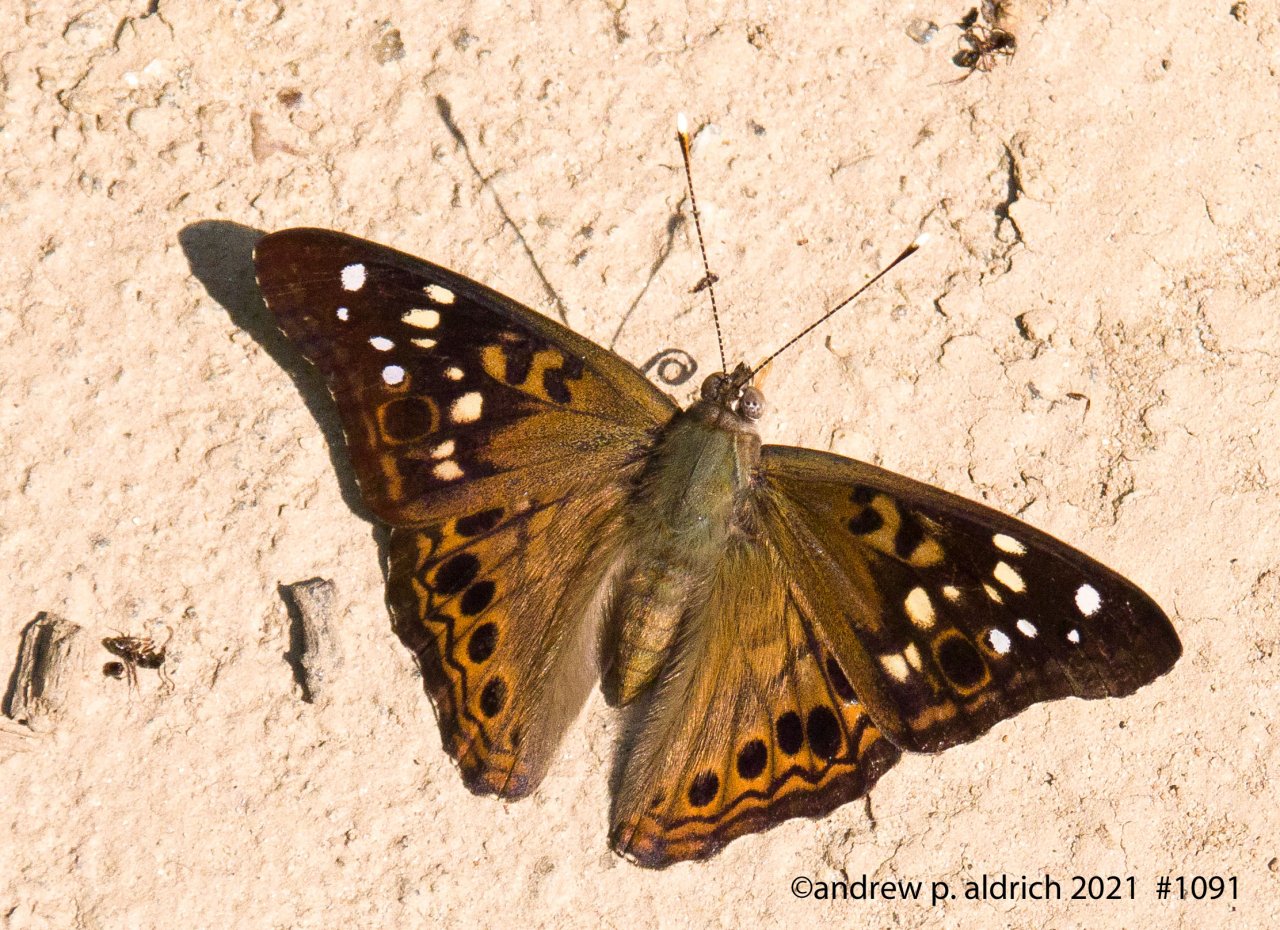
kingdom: Animalia
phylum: Arthropoda
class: Insecta
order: Lepidoptera
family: Nymphalidae
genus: Asterocampa
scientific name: Asterocampa celtis
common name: Hackberry Emperor
